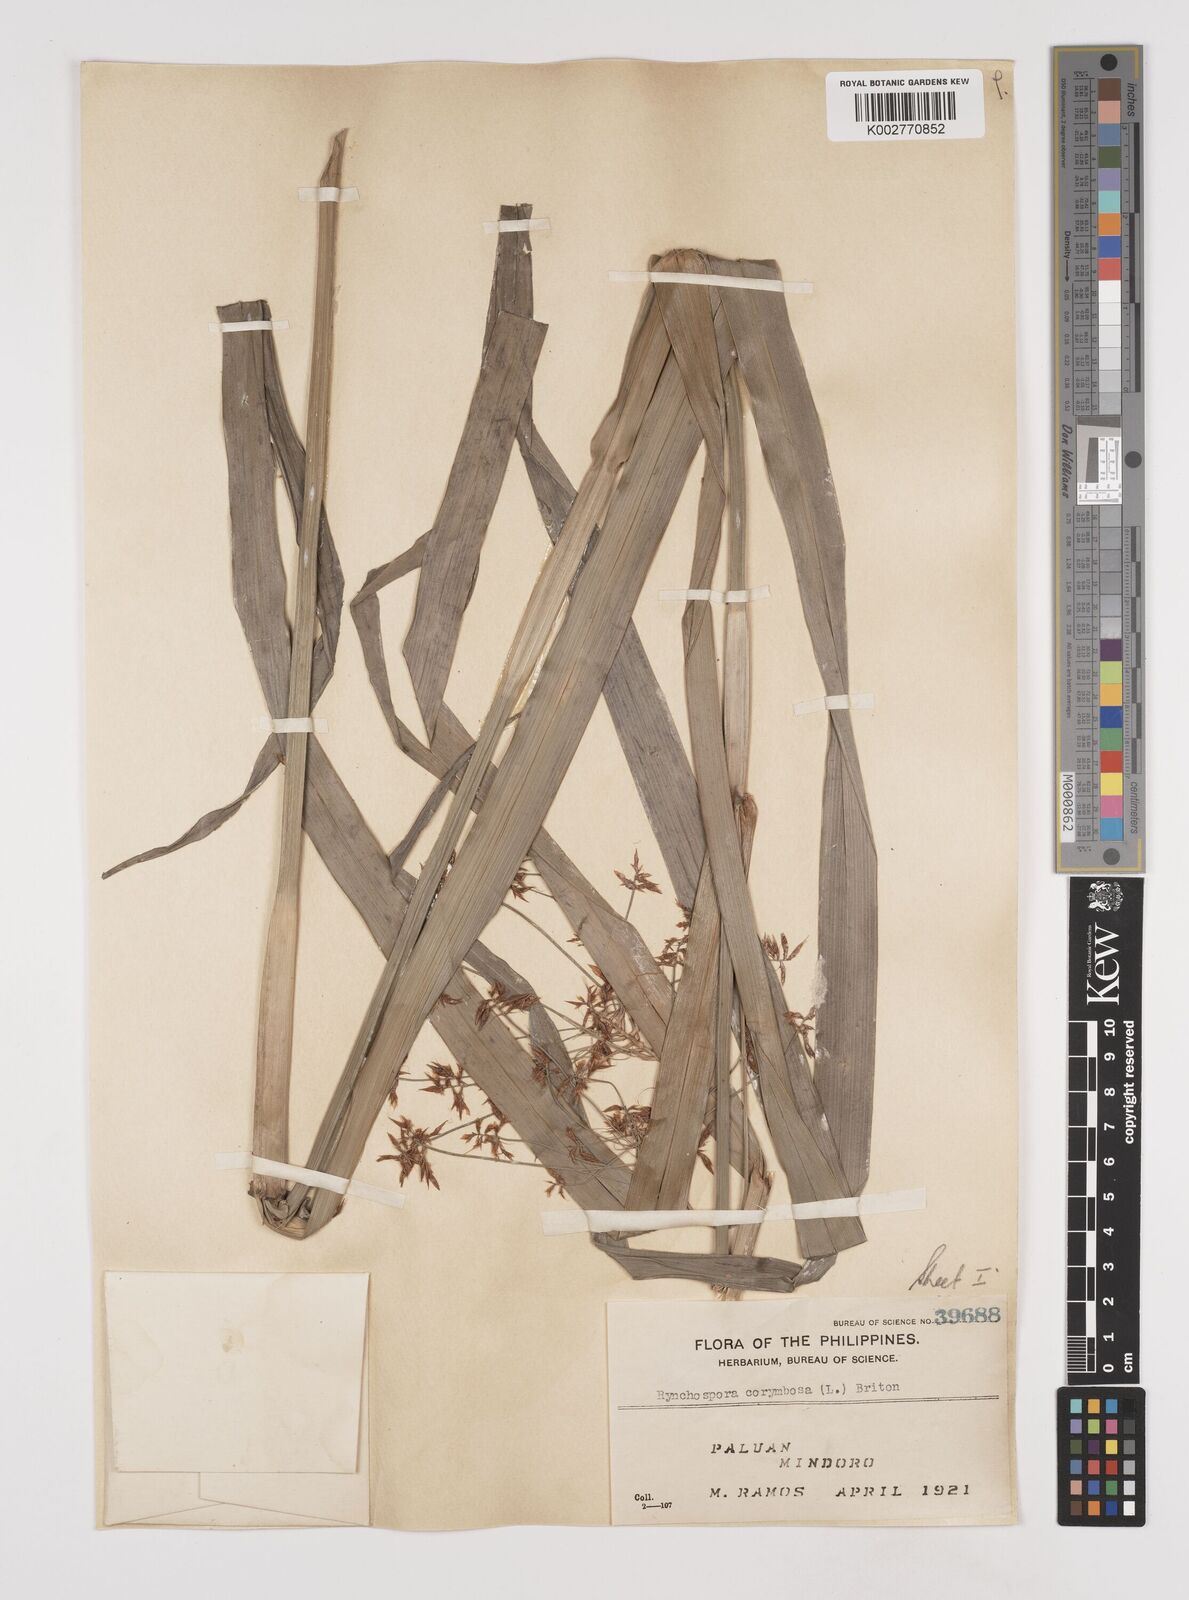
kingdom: Plantae
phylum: Tracheophyta
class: Liliopsida
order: Poales
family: Cyperaceae
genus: Rhynchospora
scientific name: Rhynchospora corymbosa
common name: Golden beak sedge
